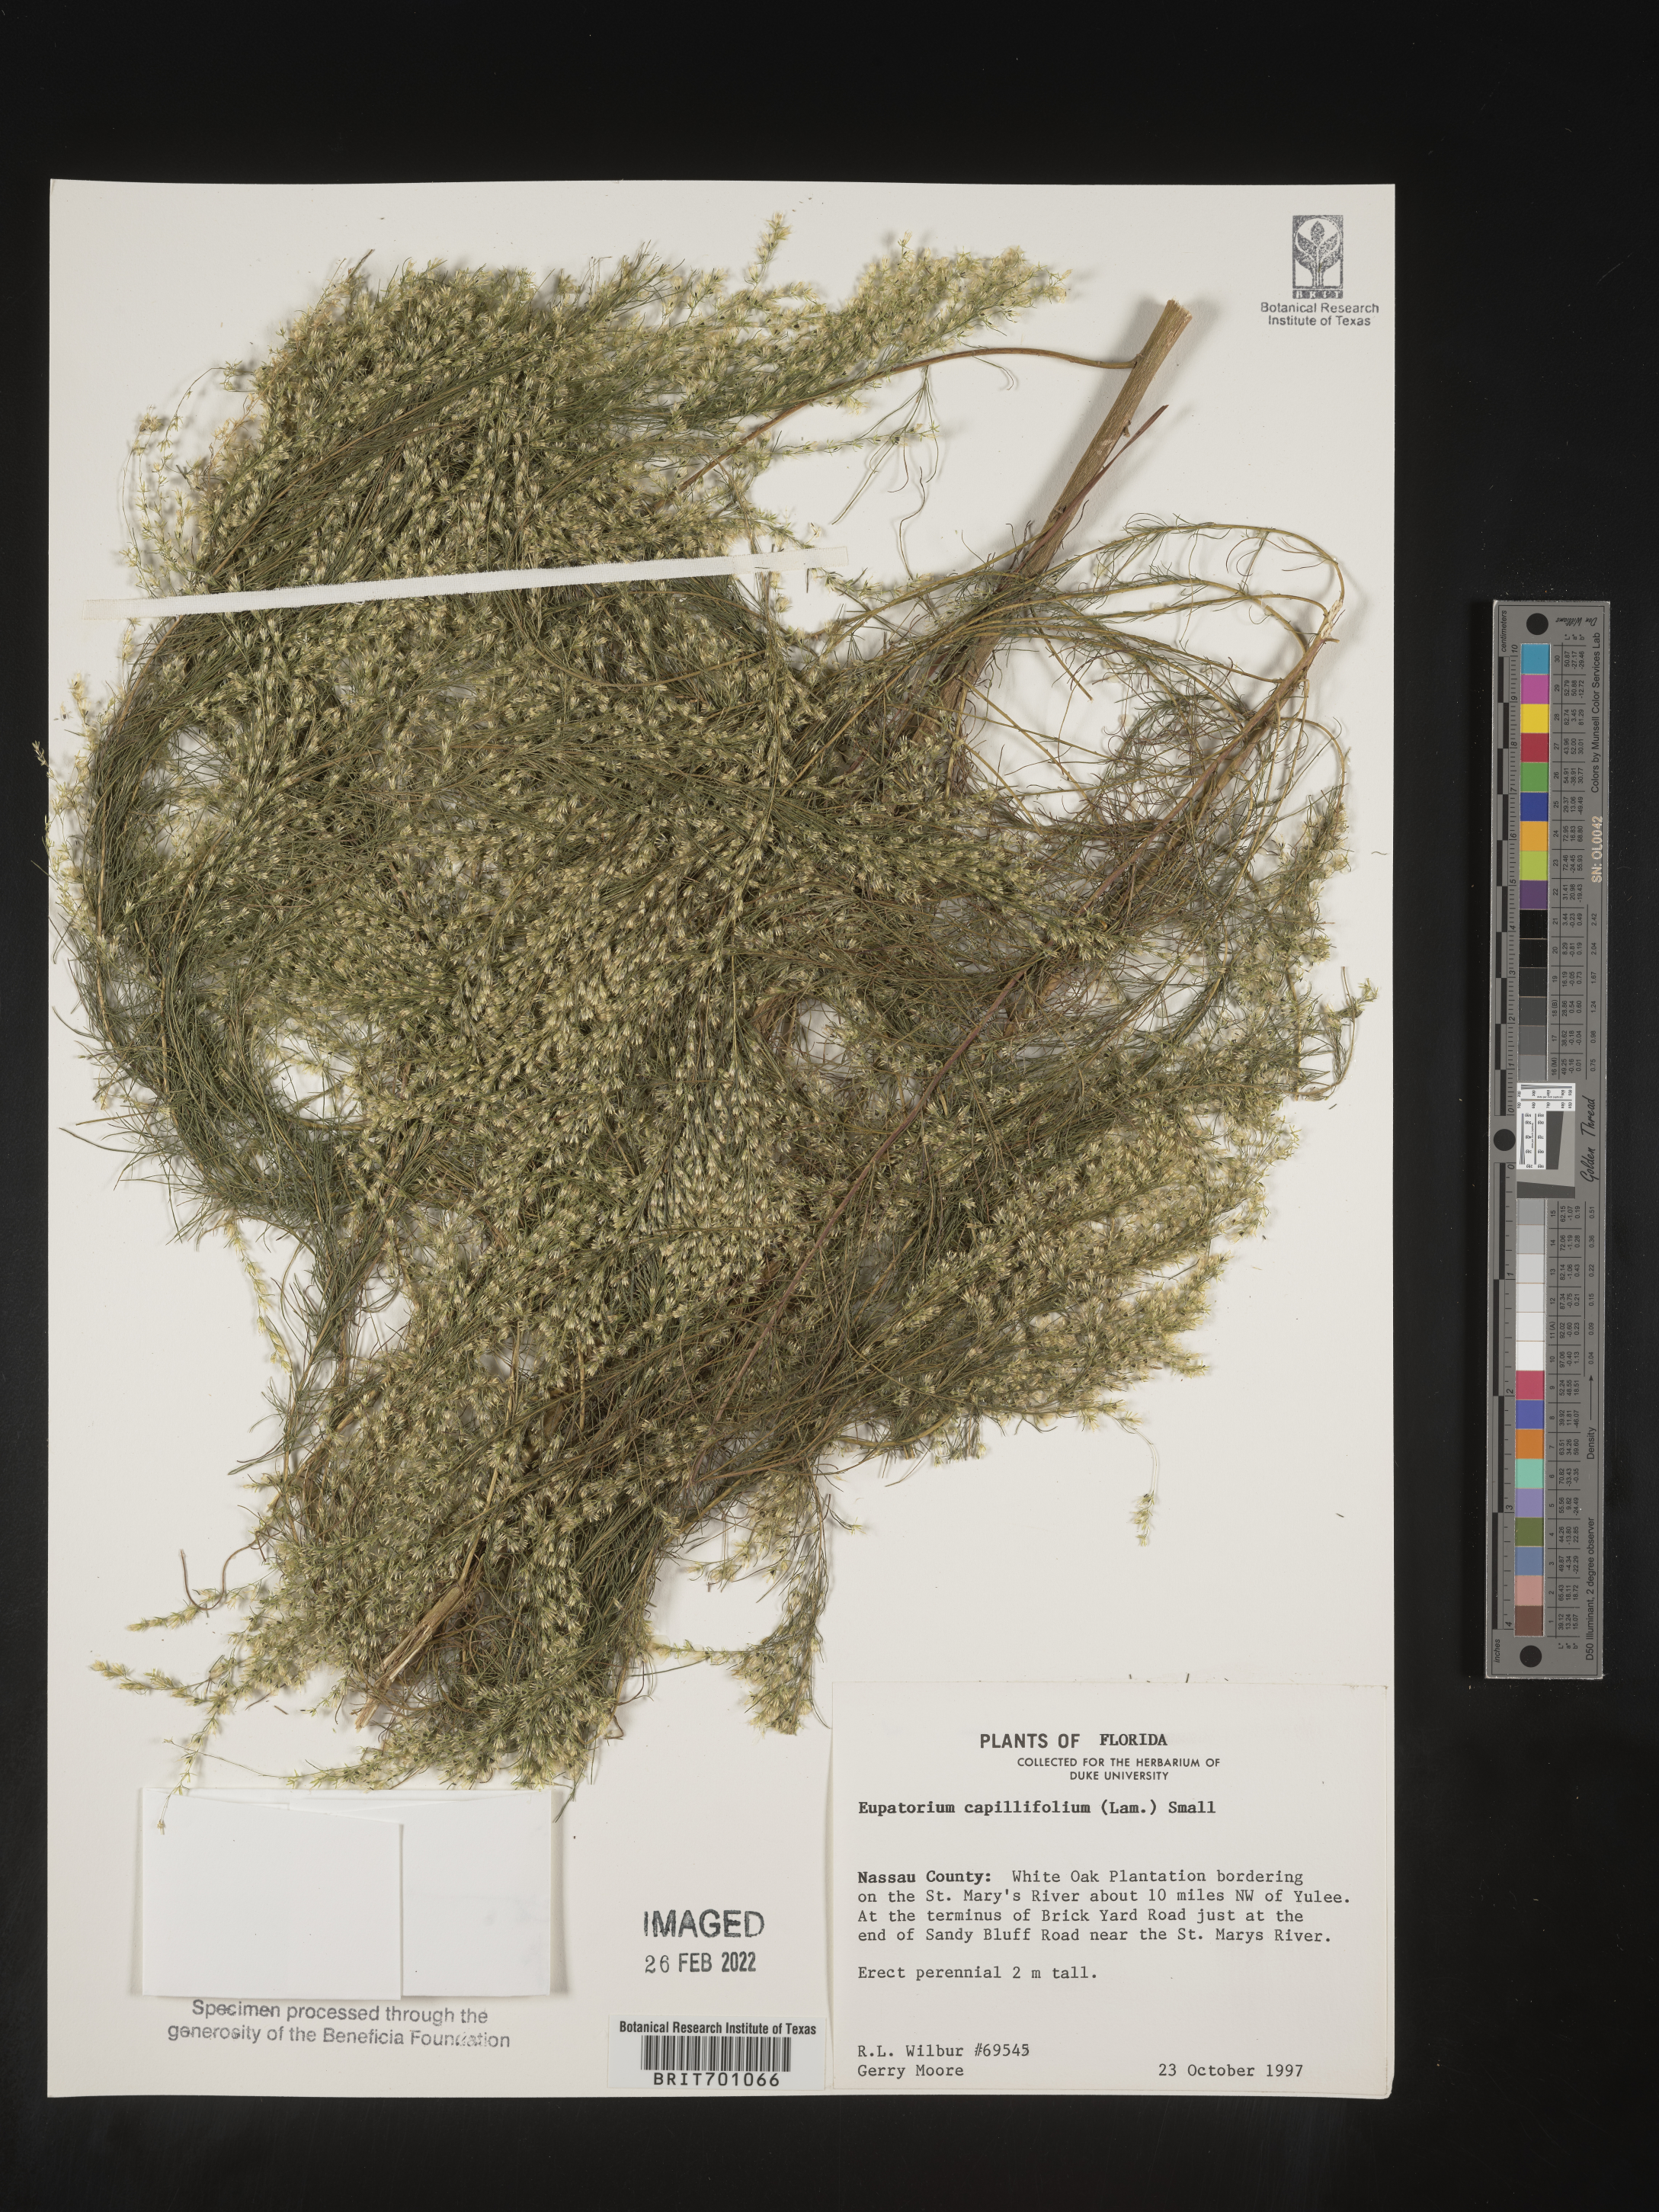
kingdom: Plantae
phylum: Tracheophyta
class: Magnoliopsida
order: Asterales
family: Asteraceae
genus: Eupatorium
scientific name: Eupatorium capillifolium
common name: Dog-fennel
